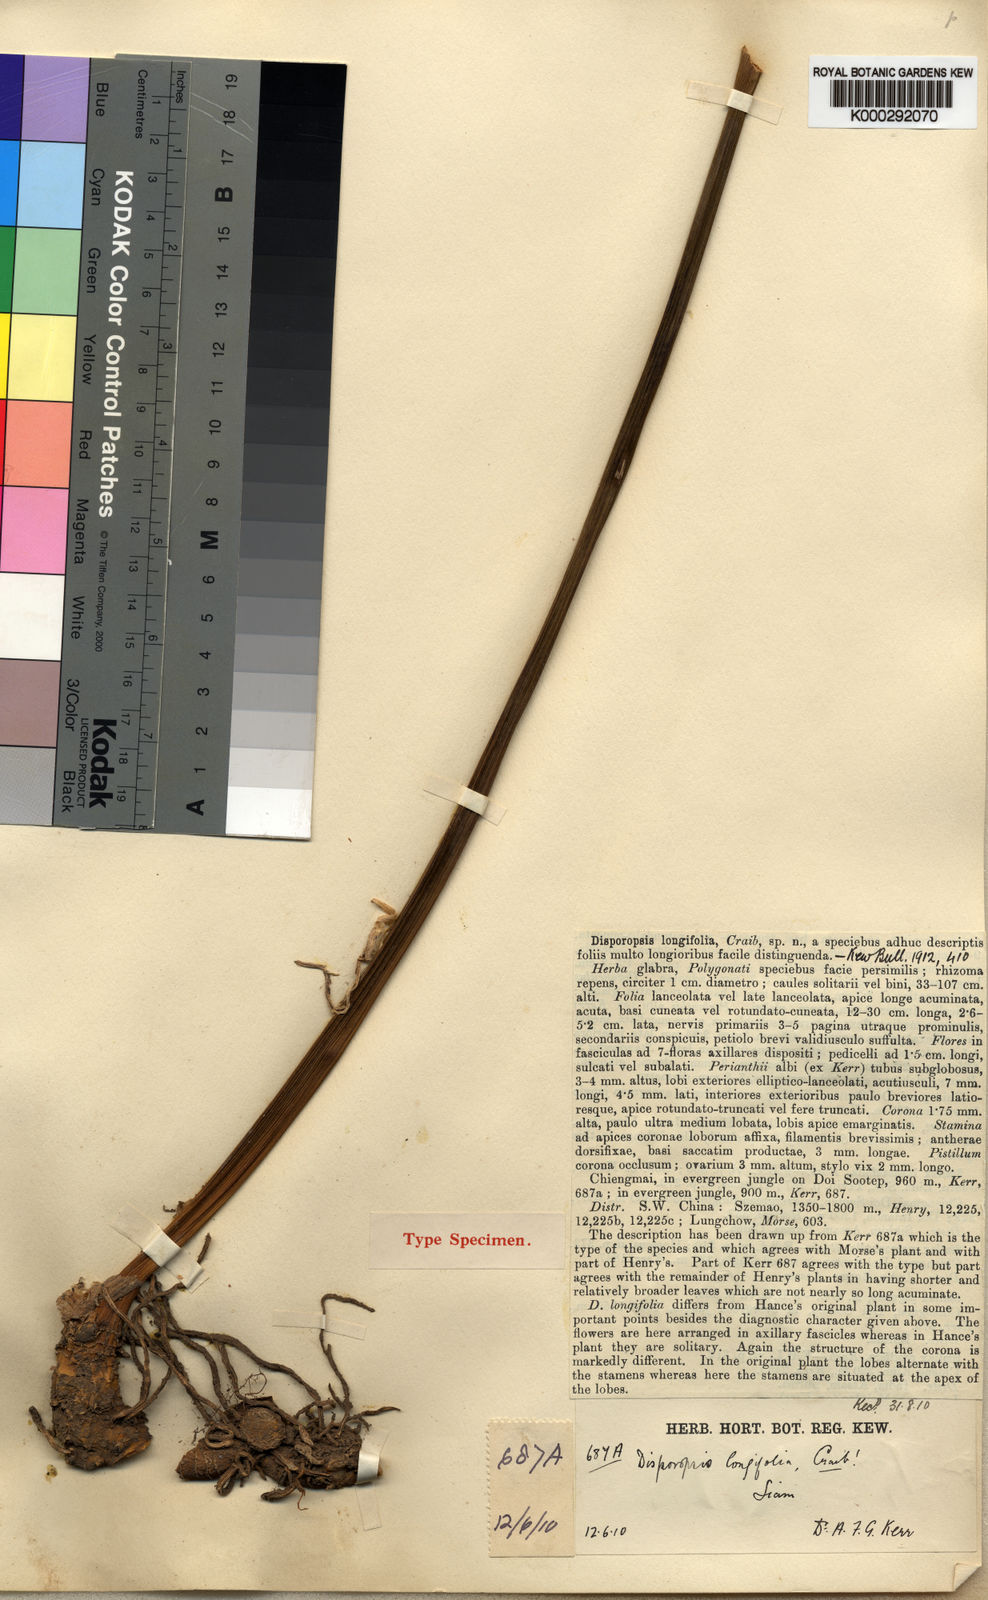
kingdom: Plantae
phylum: Tracheophyta
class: Liliopsida
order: Asparagales
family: Asparagaceae
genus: Disporopsis
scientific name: Disporopsis longifolia
